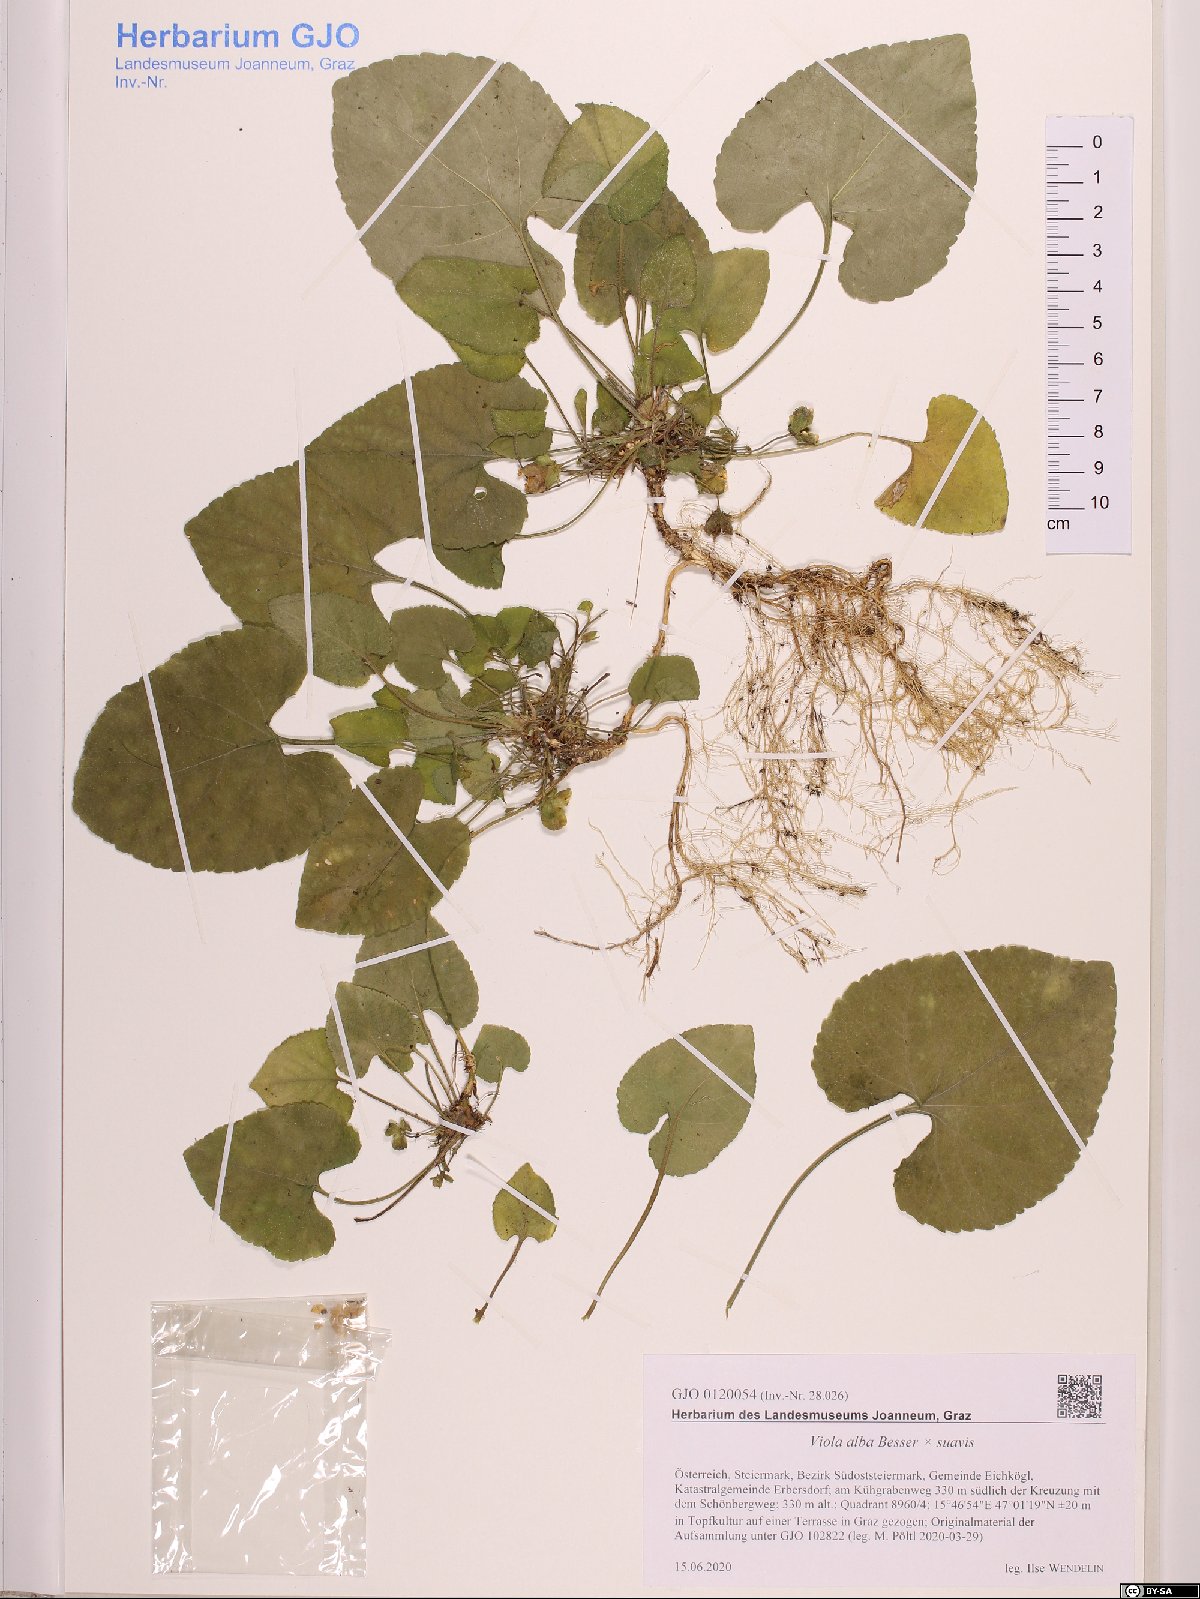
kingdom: Plantae
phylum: Tracheophyta
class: Magnoliopsida
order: Malpighiales
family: Violaceae
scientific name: Violaceae
